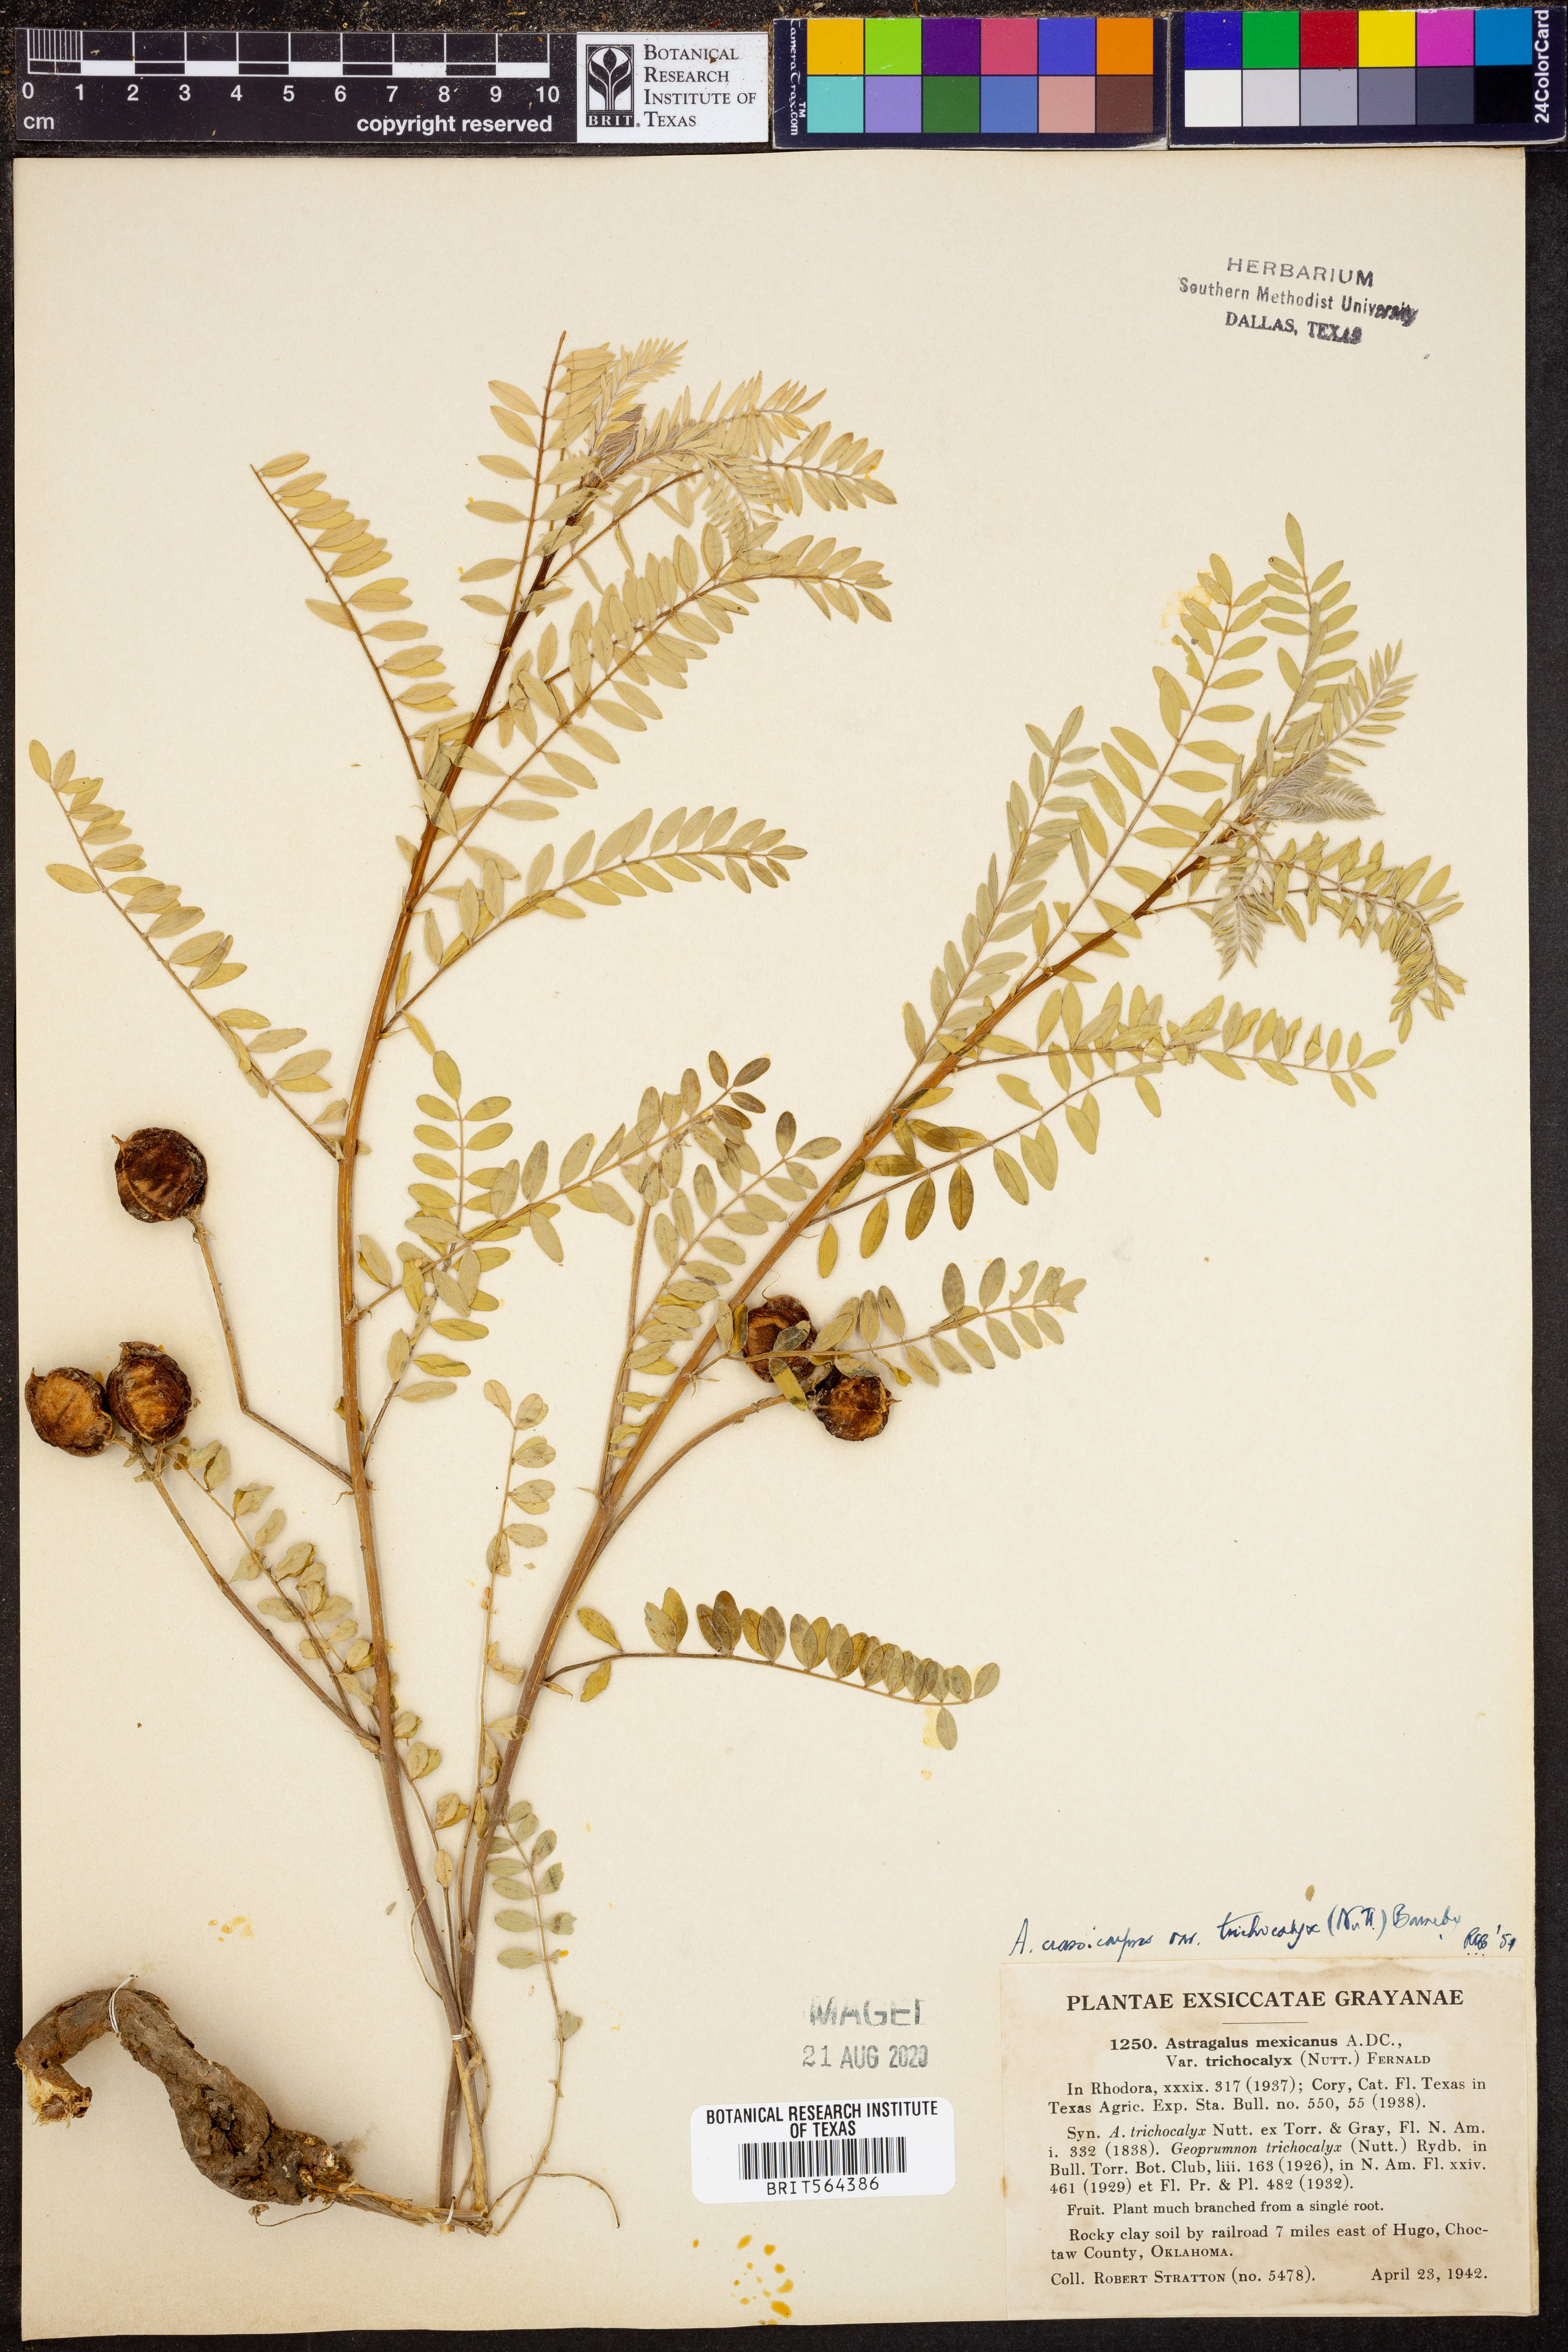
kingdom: Plantae
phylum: Tracheophyta
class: Magnoliopsida
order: Fabales
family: Fabaceae
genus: Astragalus
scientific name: Astragalus crassicarpus
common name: Ground-plum milk-vetch
